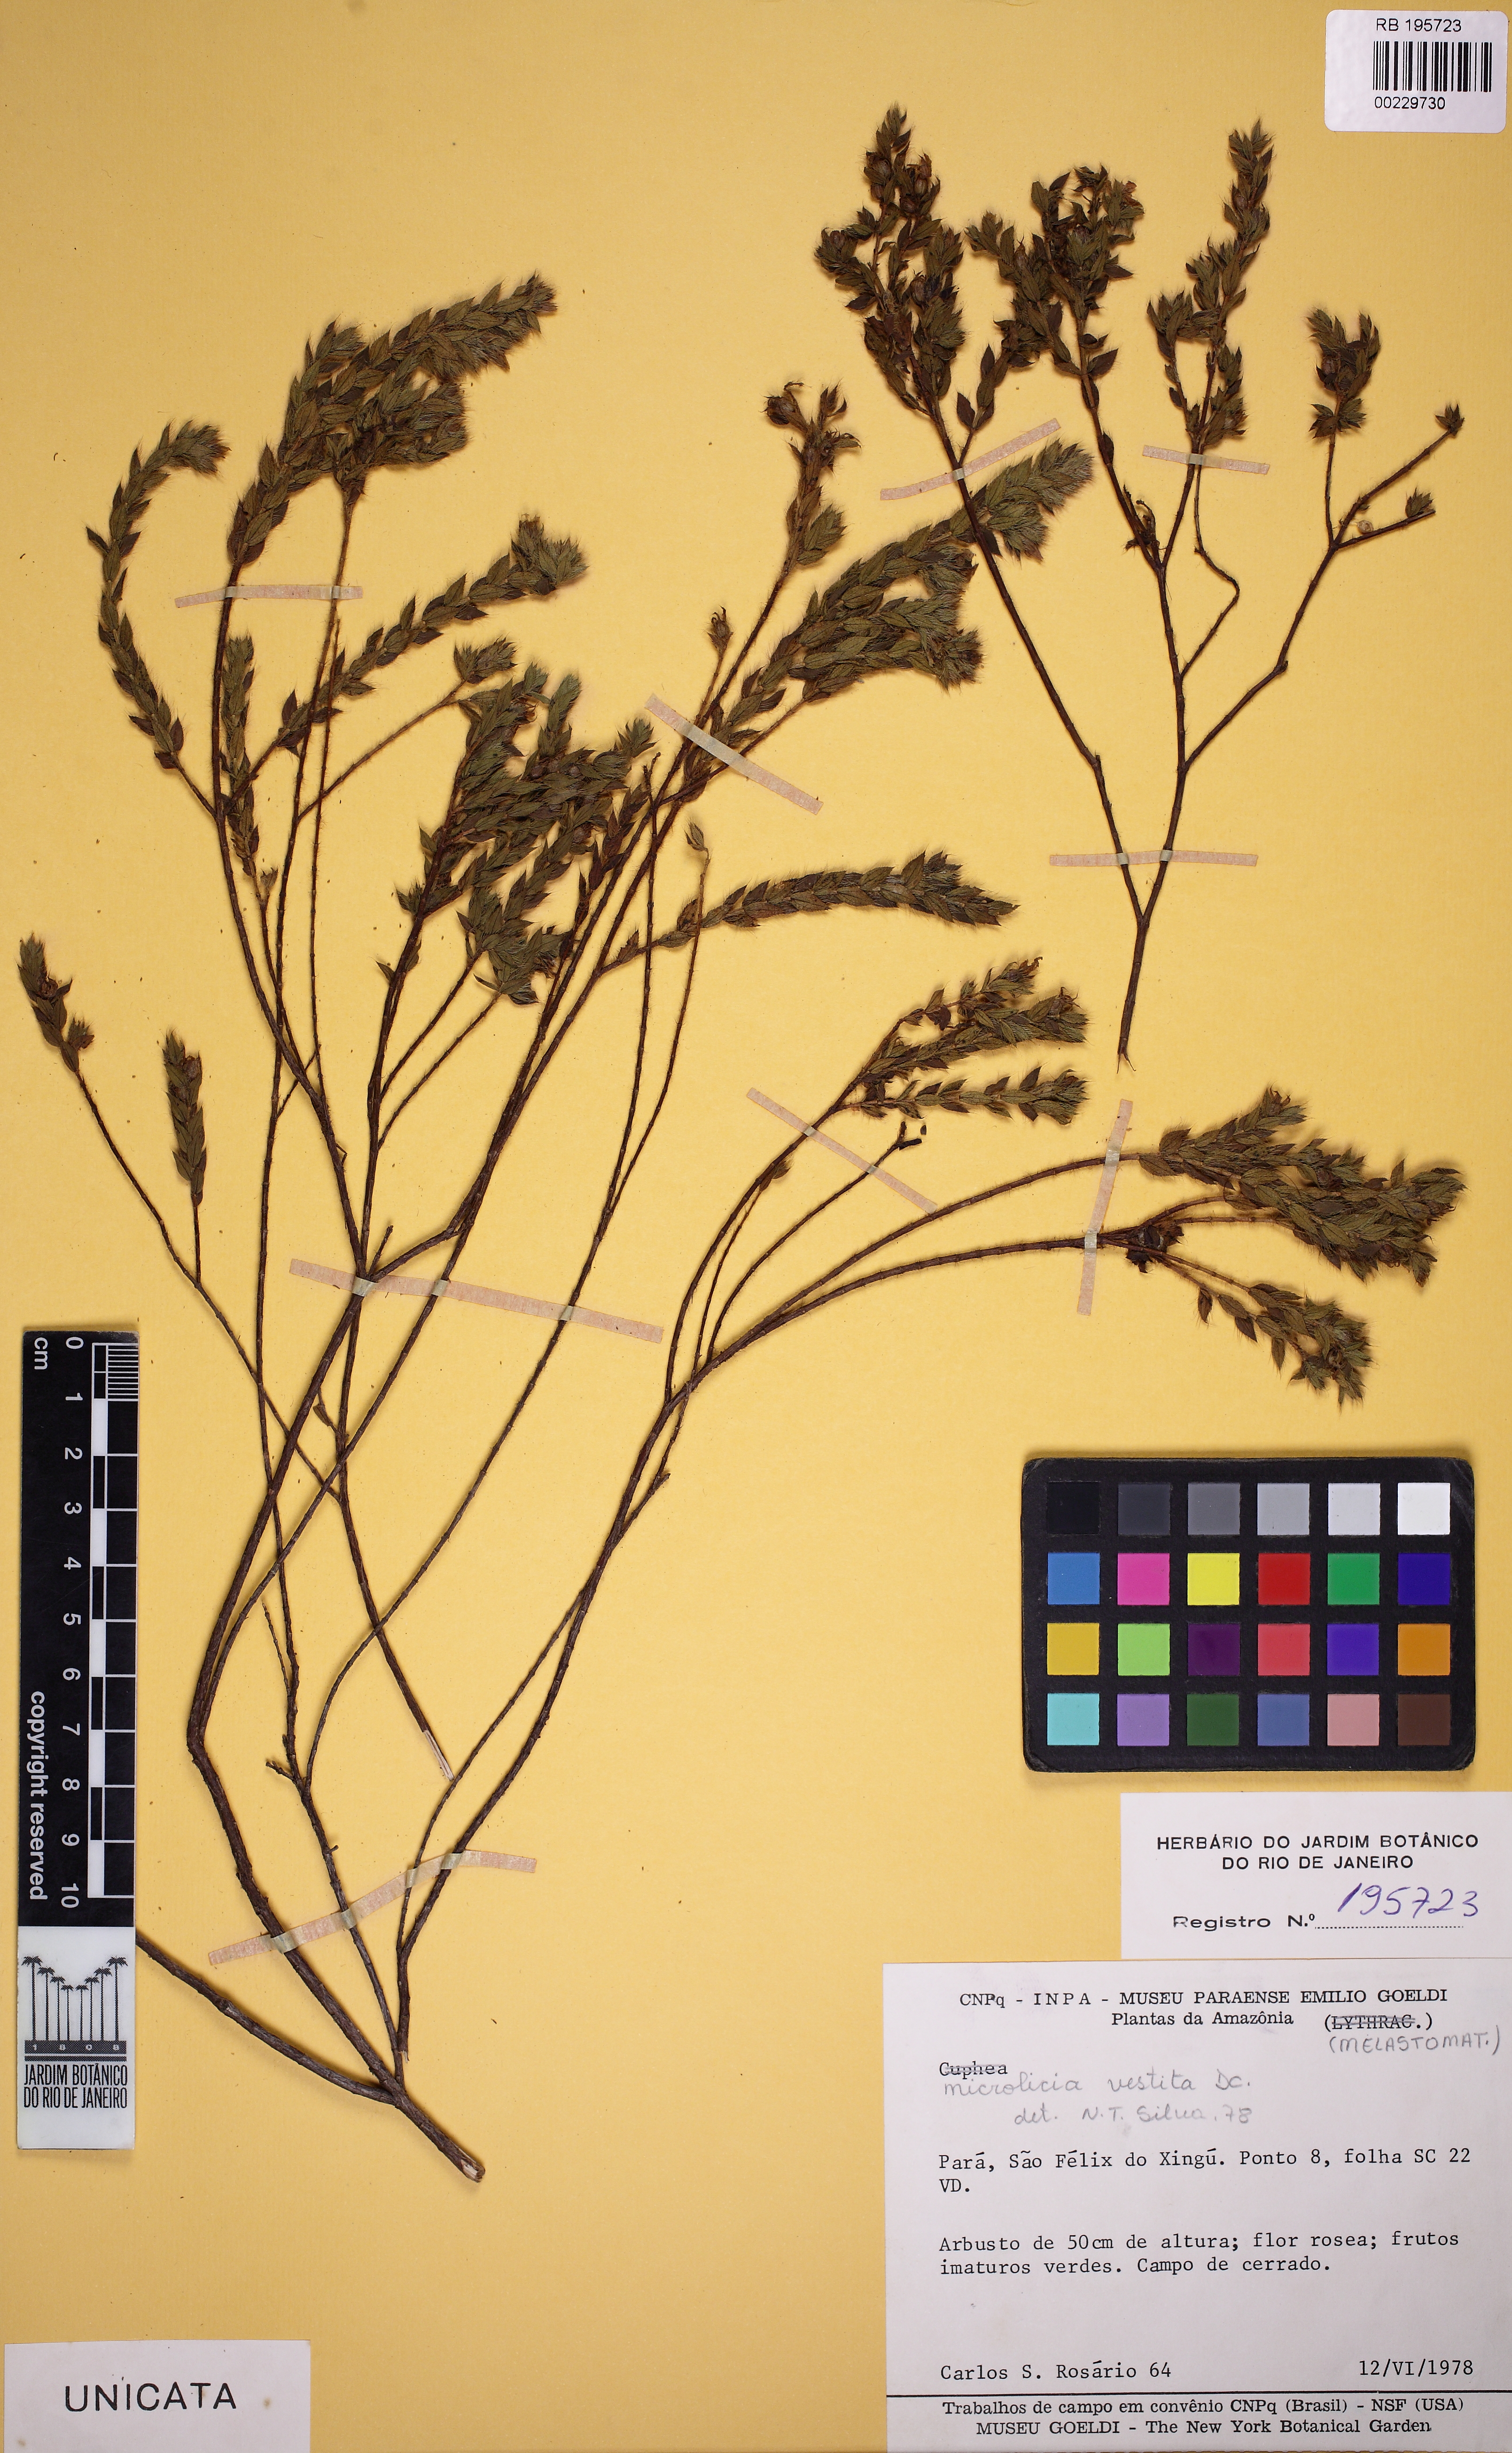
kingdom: Plantae
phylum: Tracheophyta
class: Magnoliopsida
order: Myrtales
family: Melastomataceae
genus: Microlicia
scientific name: Microlicia insignis
